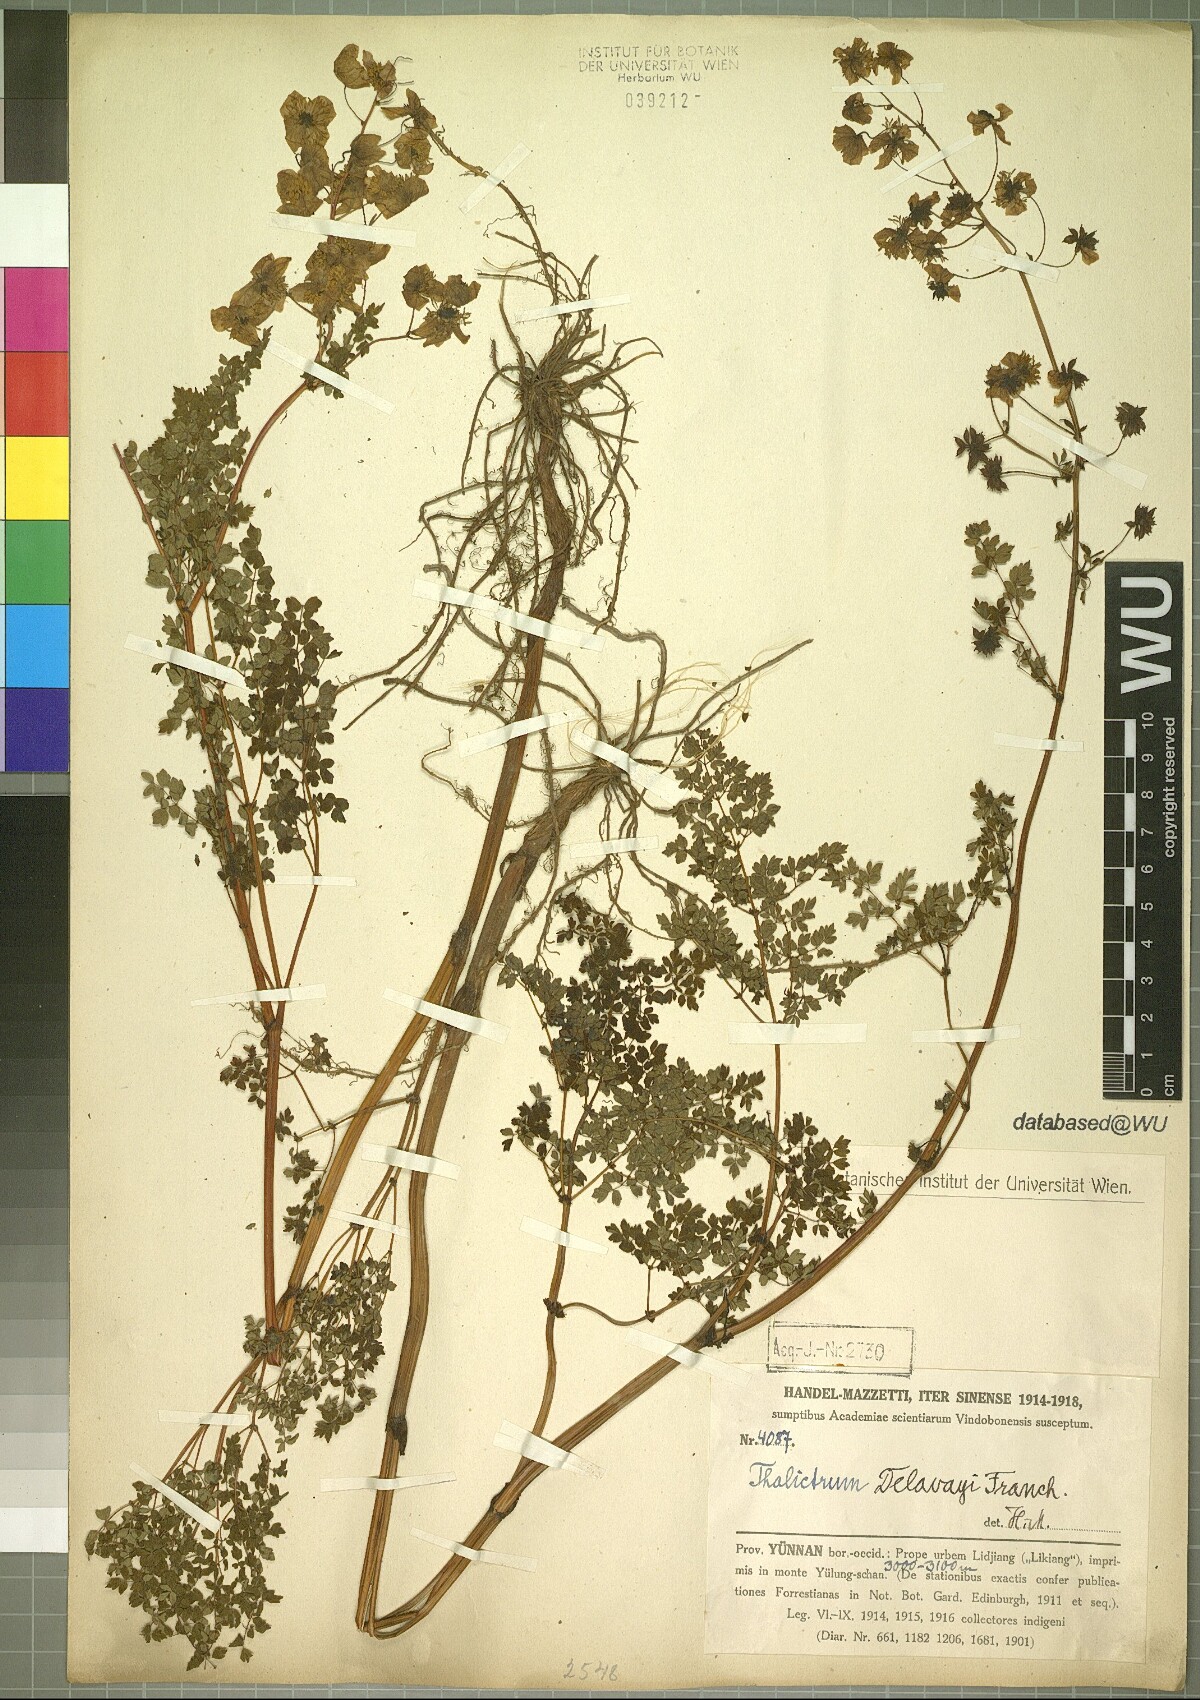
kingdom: Plantae
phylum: Tracheophyta
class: Magnoliopsida
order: Ranunculales
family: Ranunculaceae
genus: Thalictrum
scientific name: Thalictrum delavayi
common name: Chinese meadow-rue
